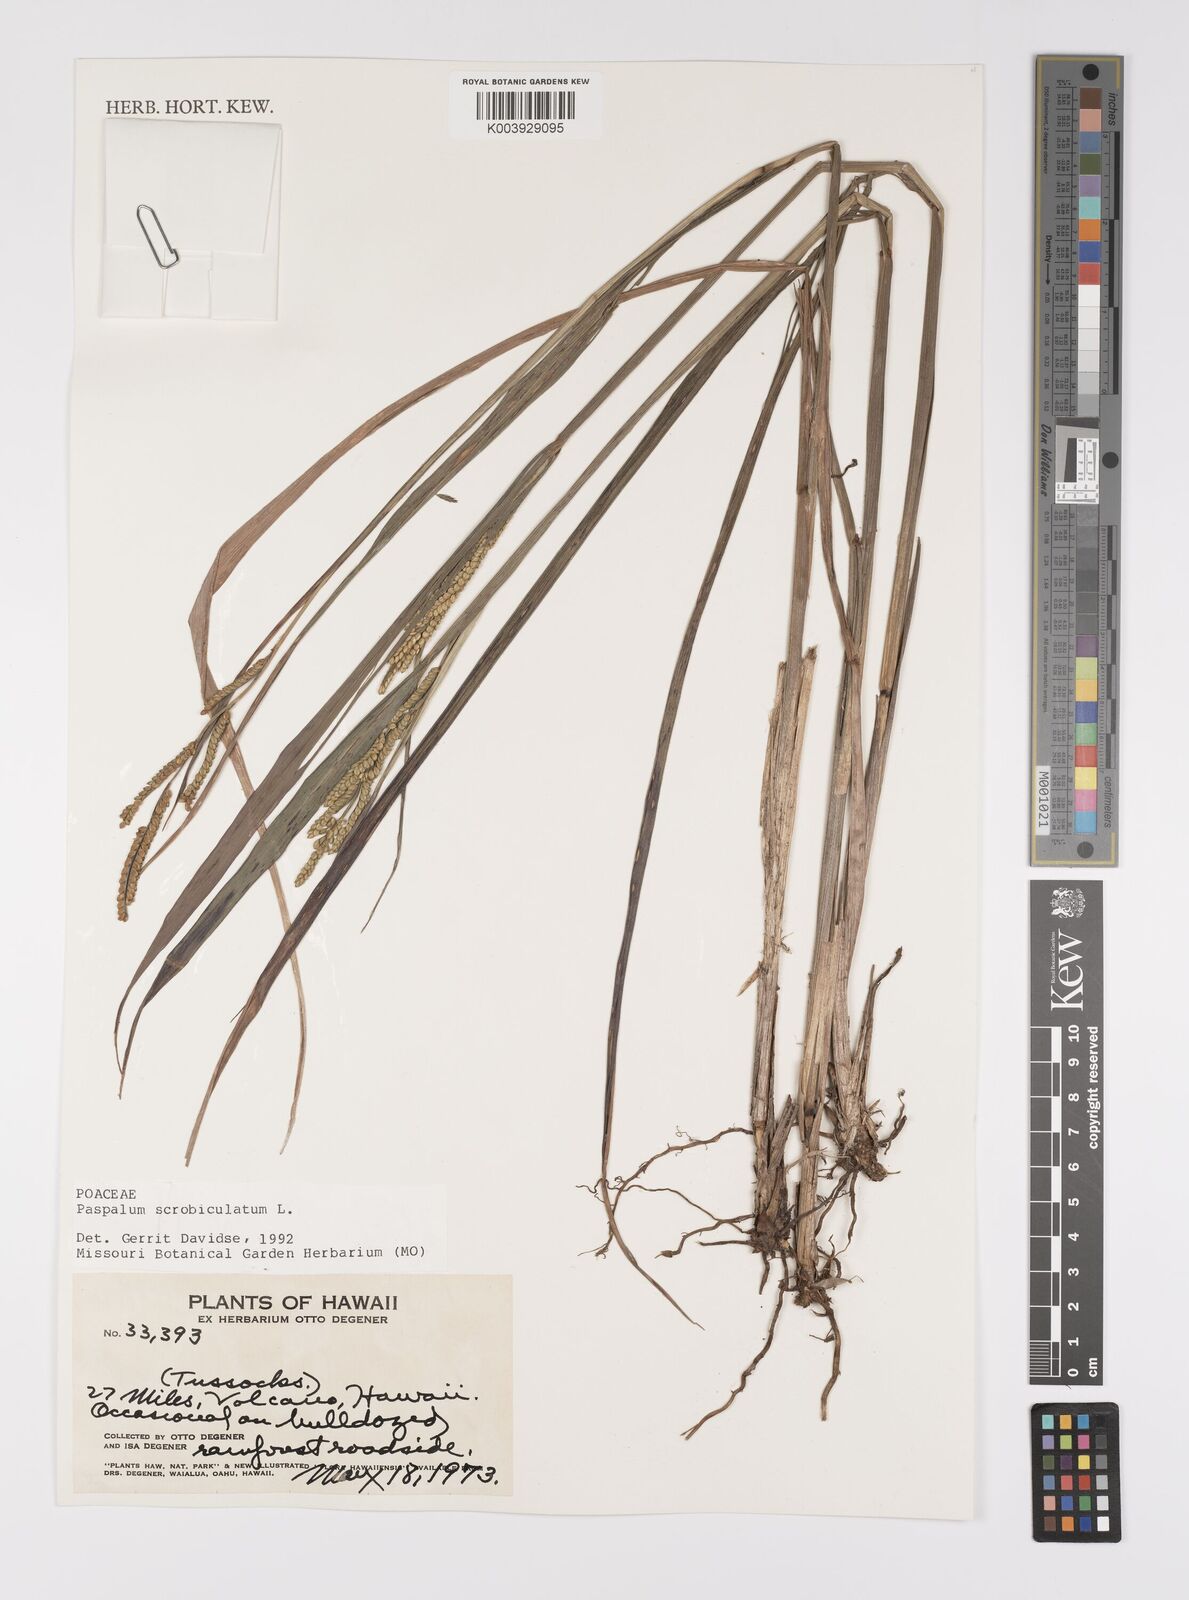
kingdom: Plantae
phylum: Tracheophyta
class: Liliopsida
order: Poales
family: Poaceae
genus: Paspalum
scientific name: Paspalum scrobiculatum
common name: Kodo millet
